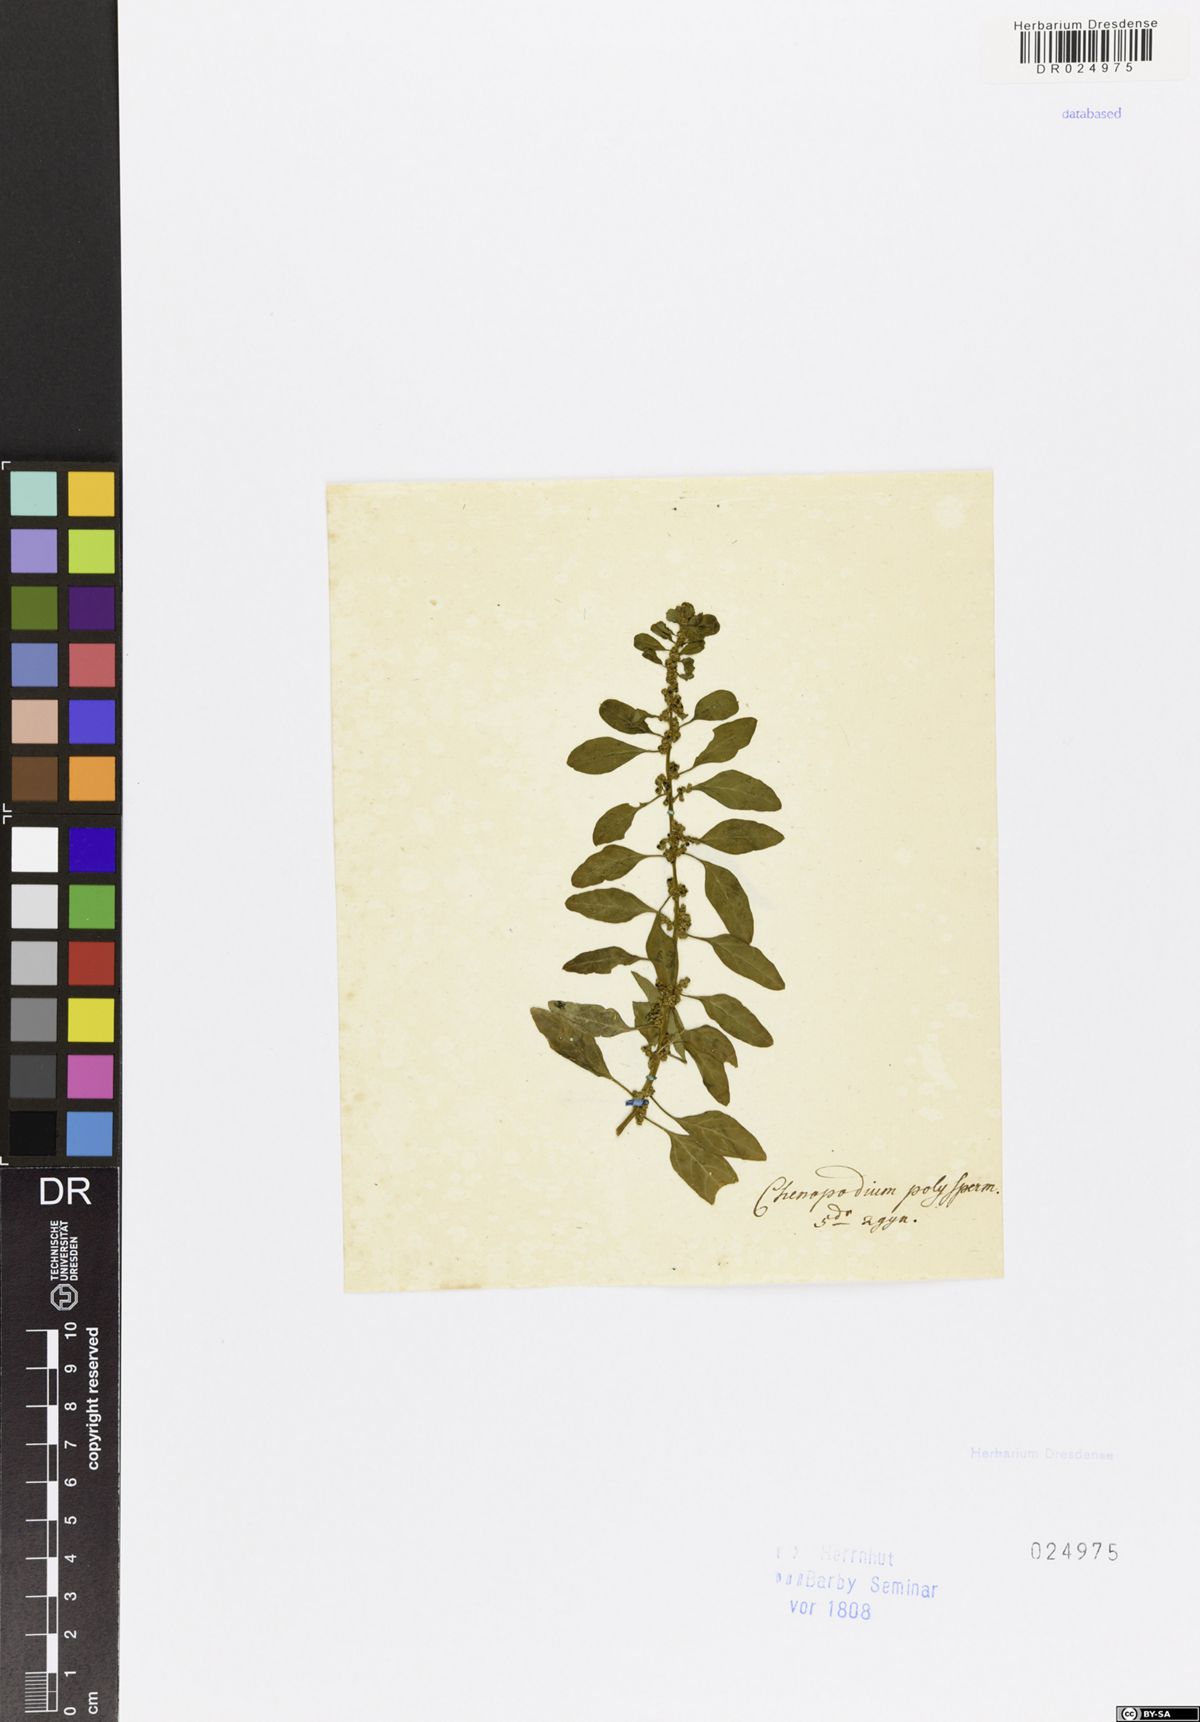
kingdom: Plantae
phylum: Tracheophyta
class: Magnoliopsida
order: Caryophyllales
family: Amaranthaceae
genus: Lipandra
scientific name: Lipandra polysperma
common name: Many-seed goosefoot
